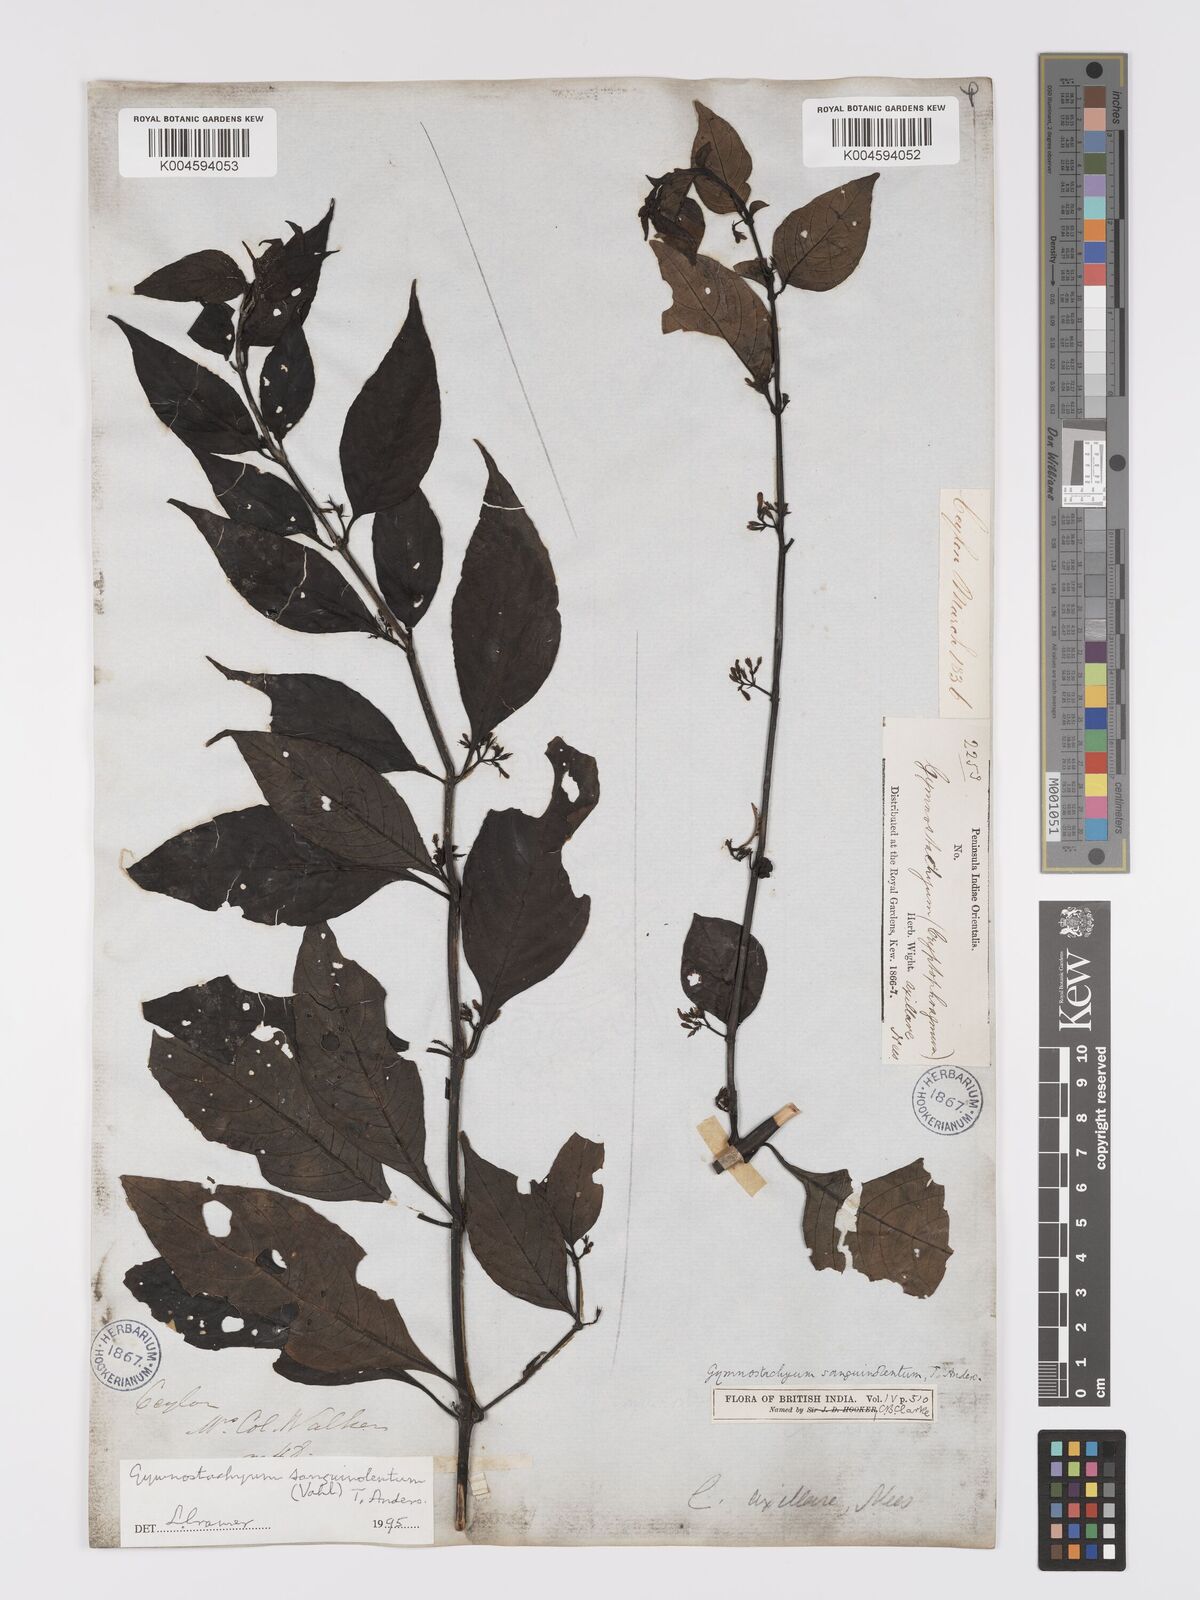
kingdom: Plantae
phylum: Tracheophyta
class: Magnoliopsida
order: Lamiales
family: Acanthaceae
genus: Gymnostachyum
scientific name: Gymnostachyum sanguinolentum
